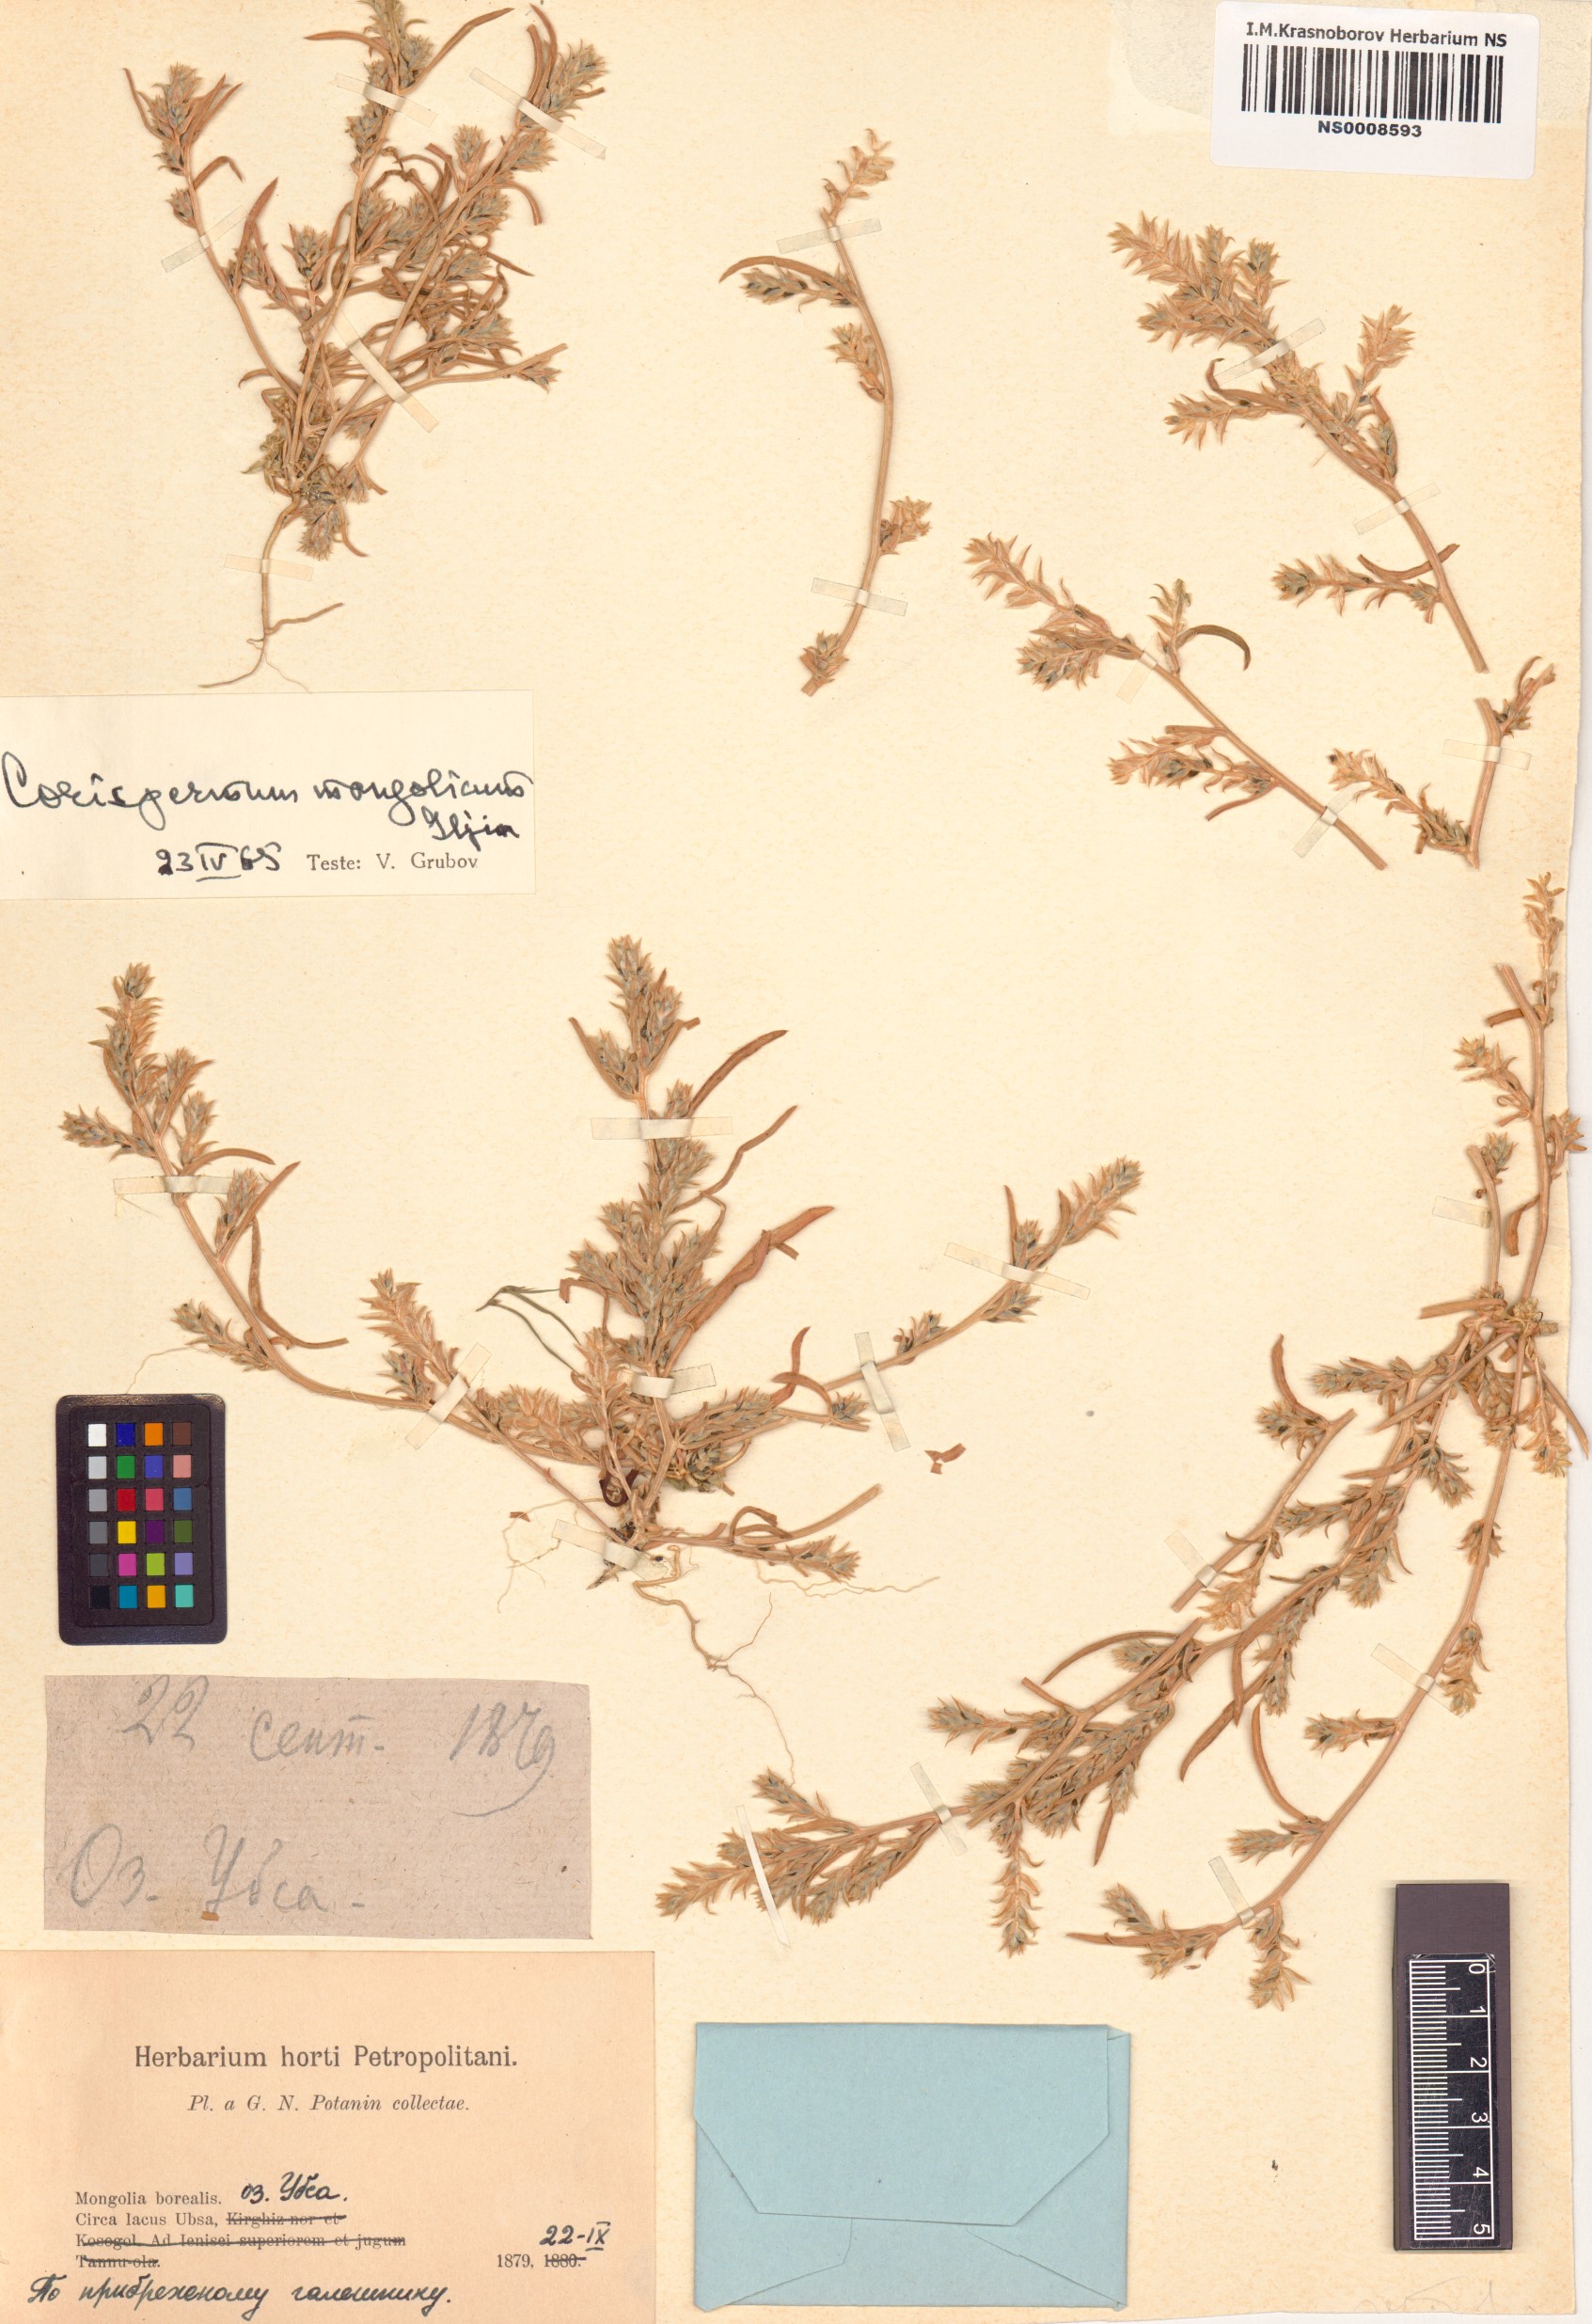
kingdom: Plantae
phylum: Tracheophyta
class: Magnoliopsida
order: Caryophyllales
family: Amaranthaceae
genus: Corispermum
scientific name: Corispermum mongolicum
